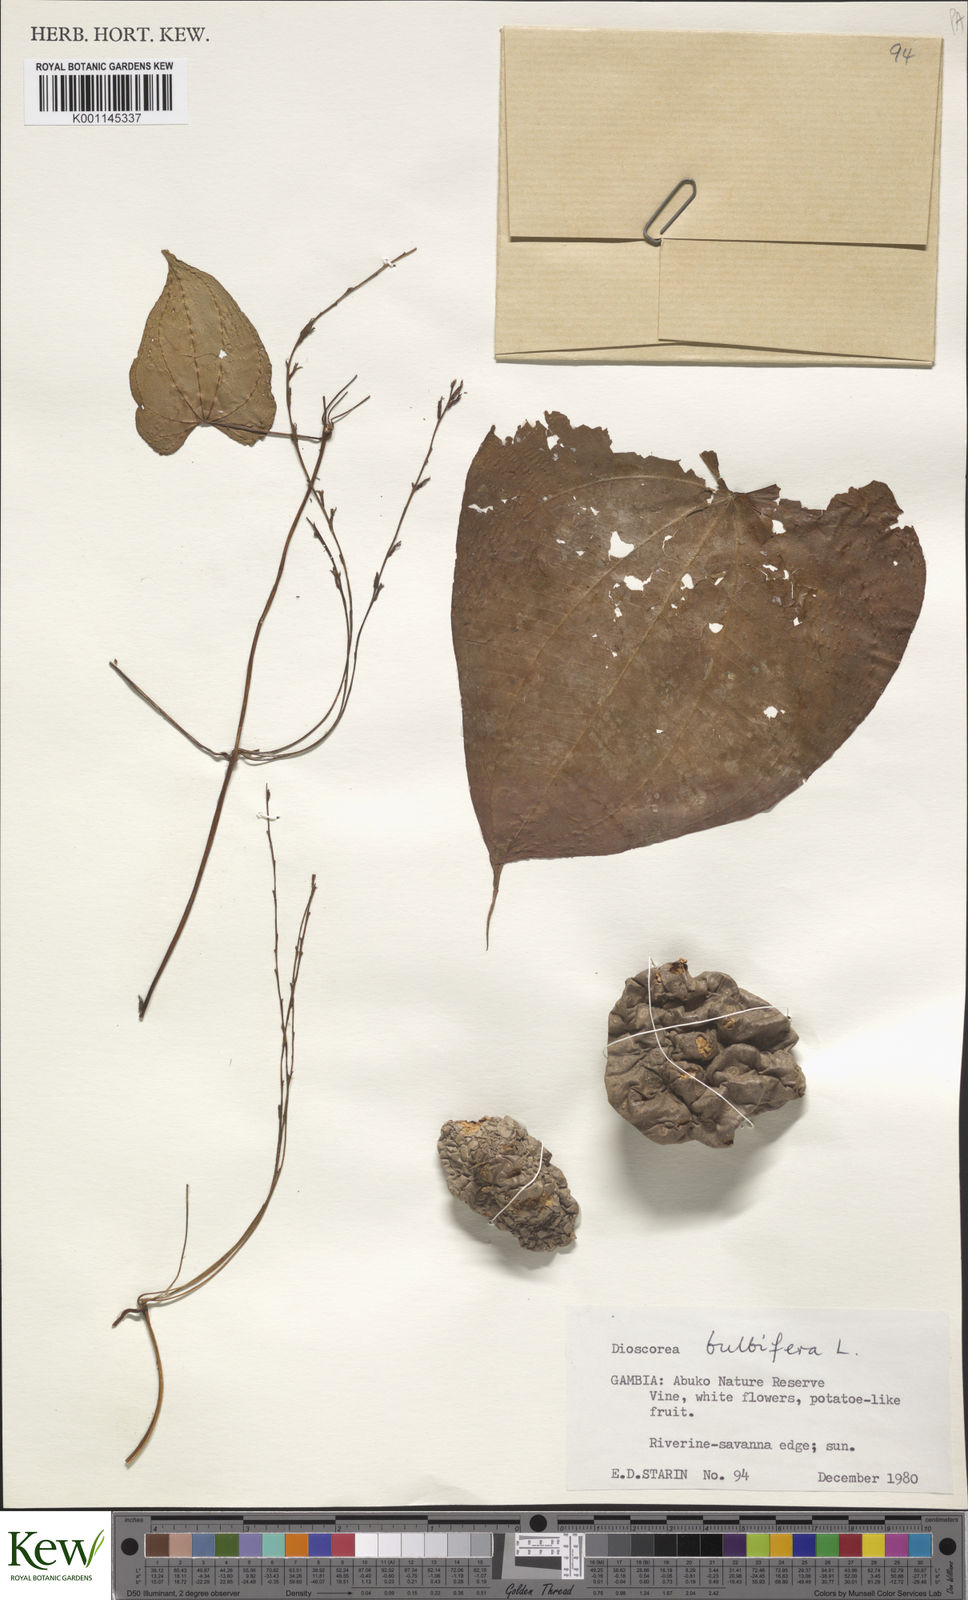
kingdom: Plantae
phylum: Tracheophyta
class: Liliopsida
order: Dioscoreales
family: Dioscoreaceae
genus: Dioscorea
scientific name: Dioscorea bulbifera
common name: Air yam
